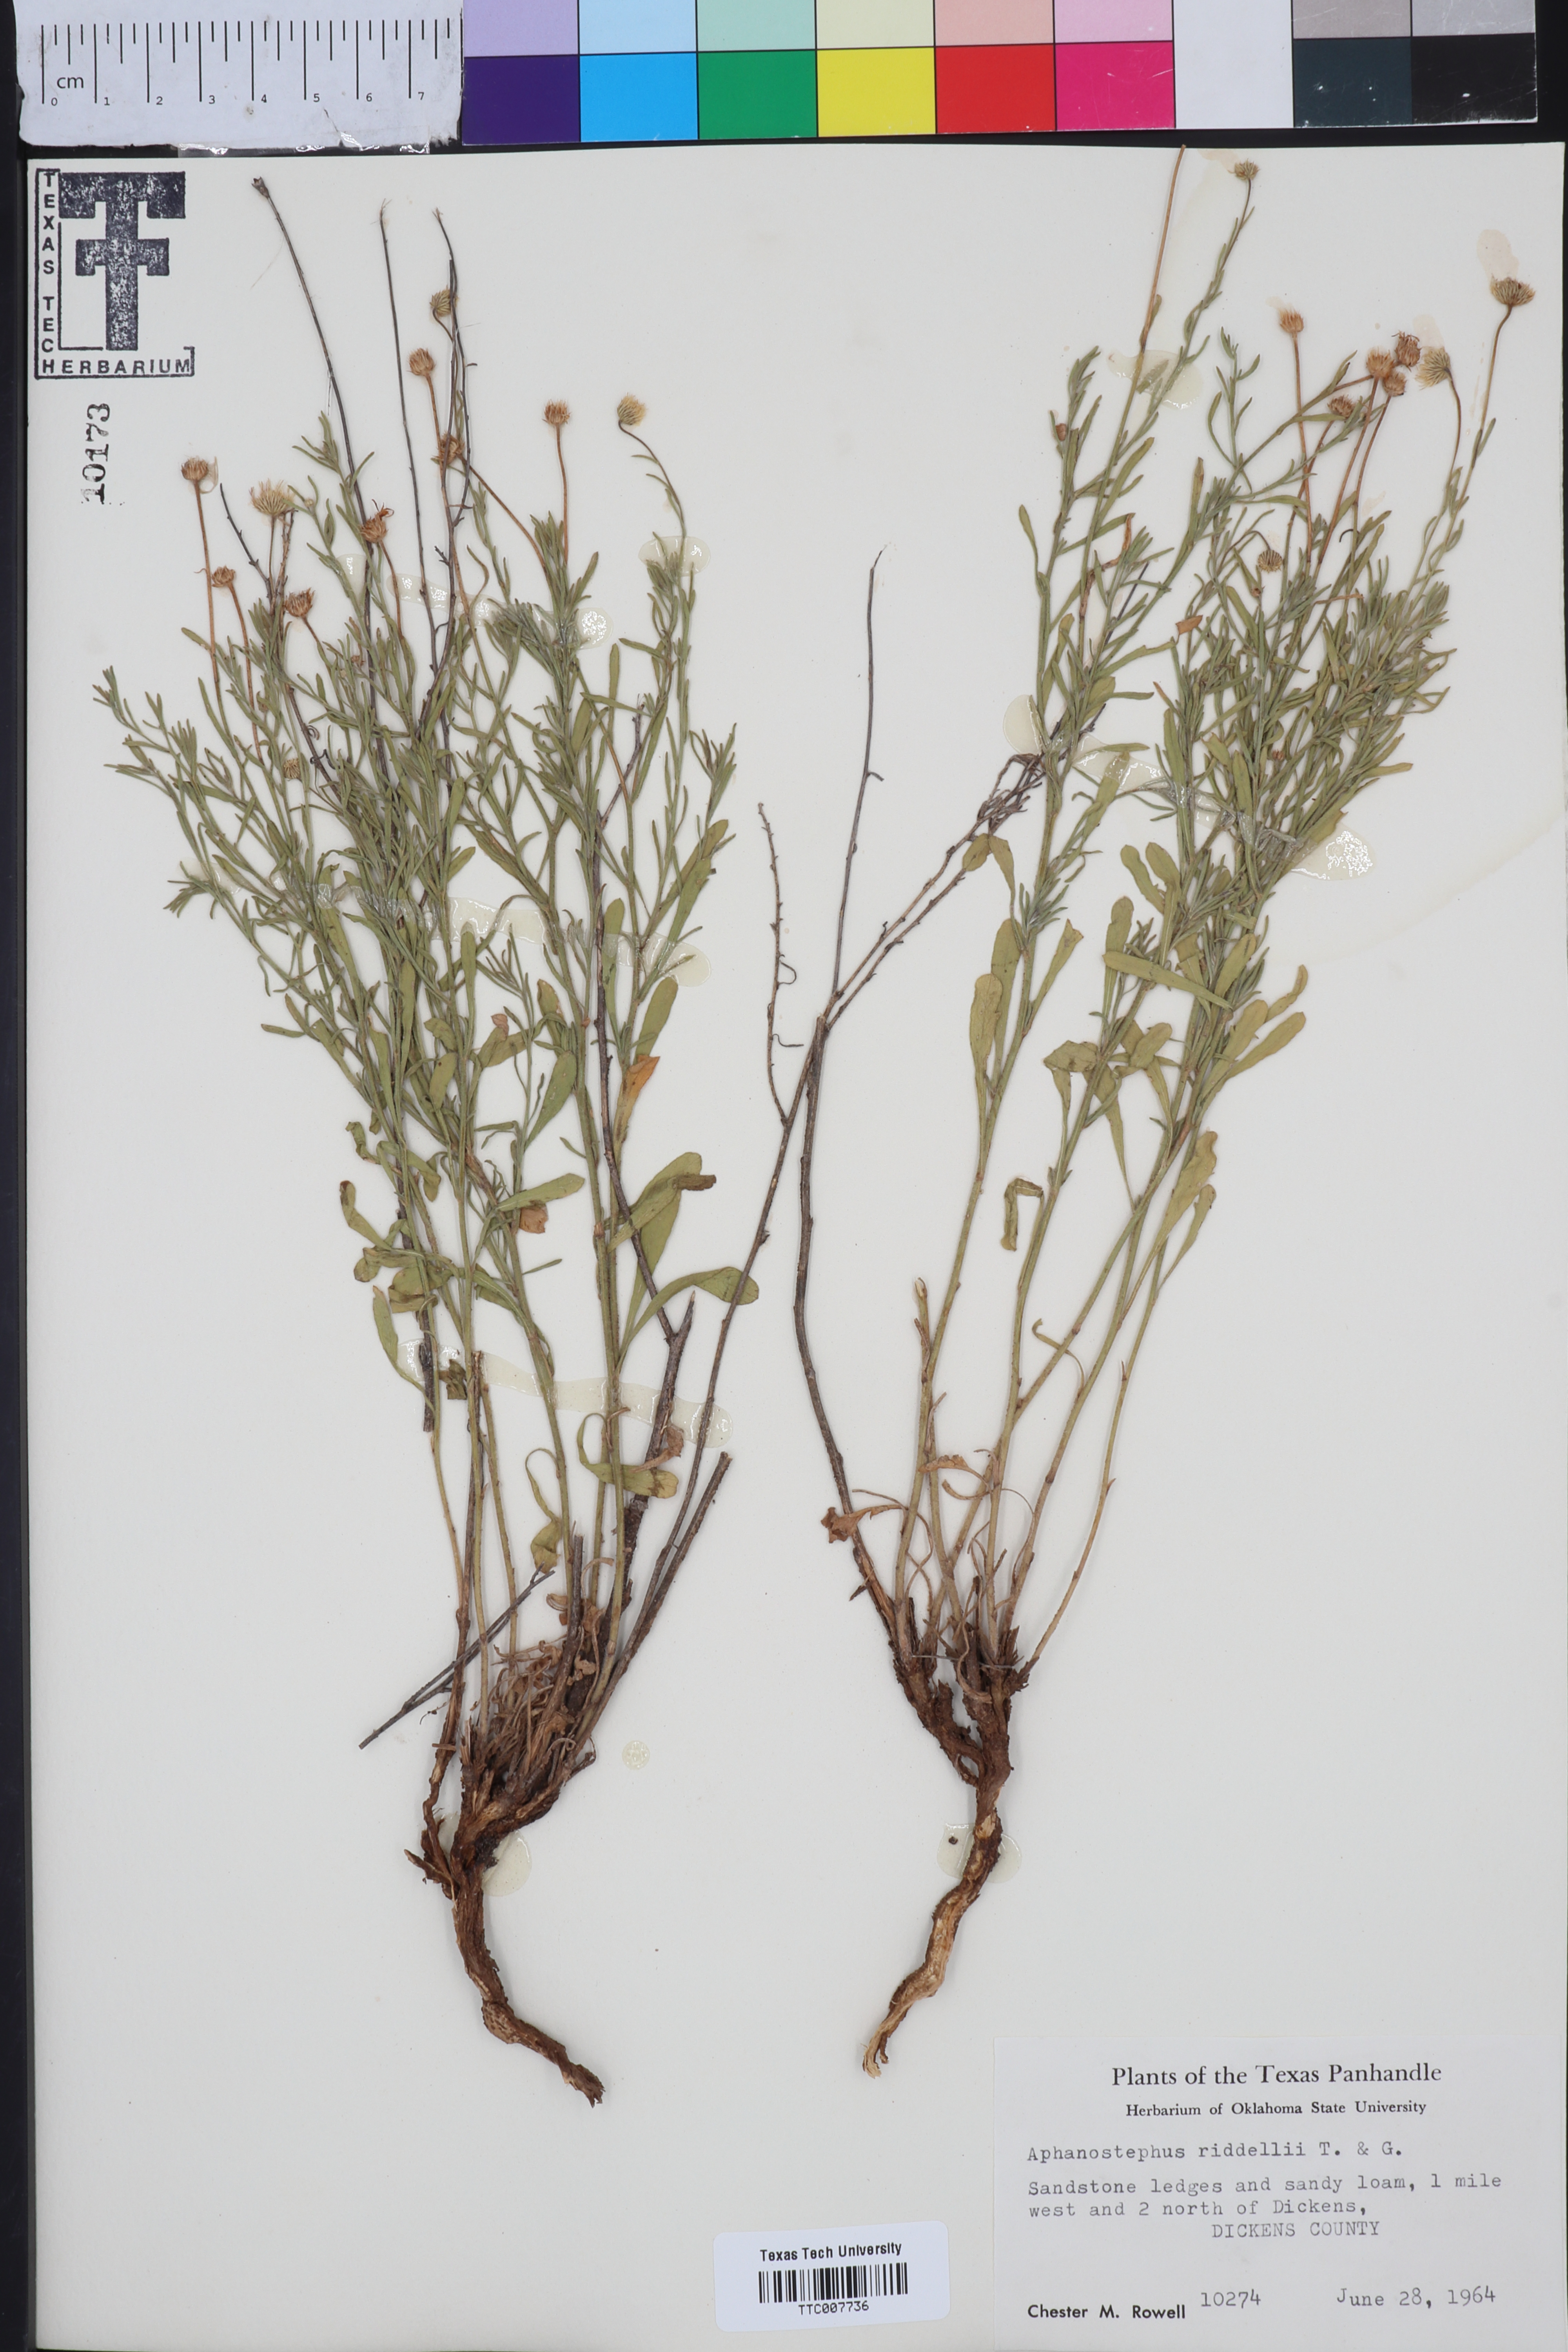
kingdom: Plantae
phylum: Tracheophyta
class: Magnoliopsida
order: Asterales
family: Asteraceae
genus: Aphanostephus
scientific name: Aphanostephus riddellii
